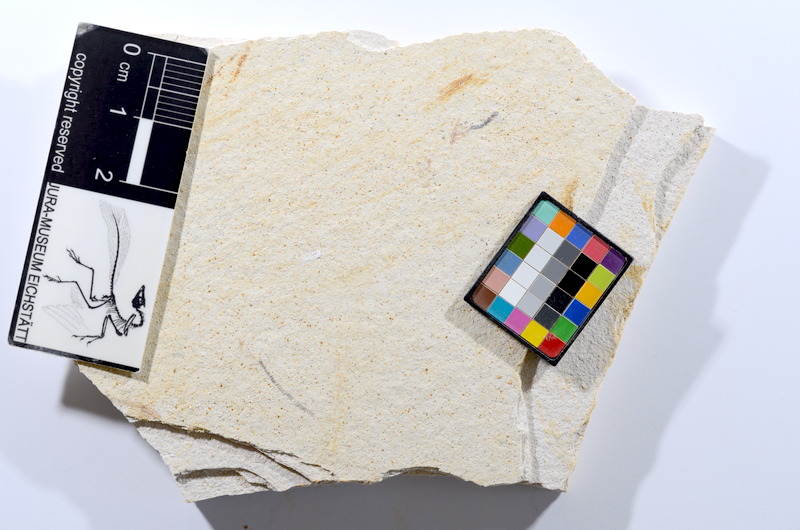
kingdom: Animalia
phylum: Chordata
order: Salmoniformes
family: Orthogonikleithridae
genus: Orthogonikleithrus
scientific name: Orthogonikleithrus hoelli
